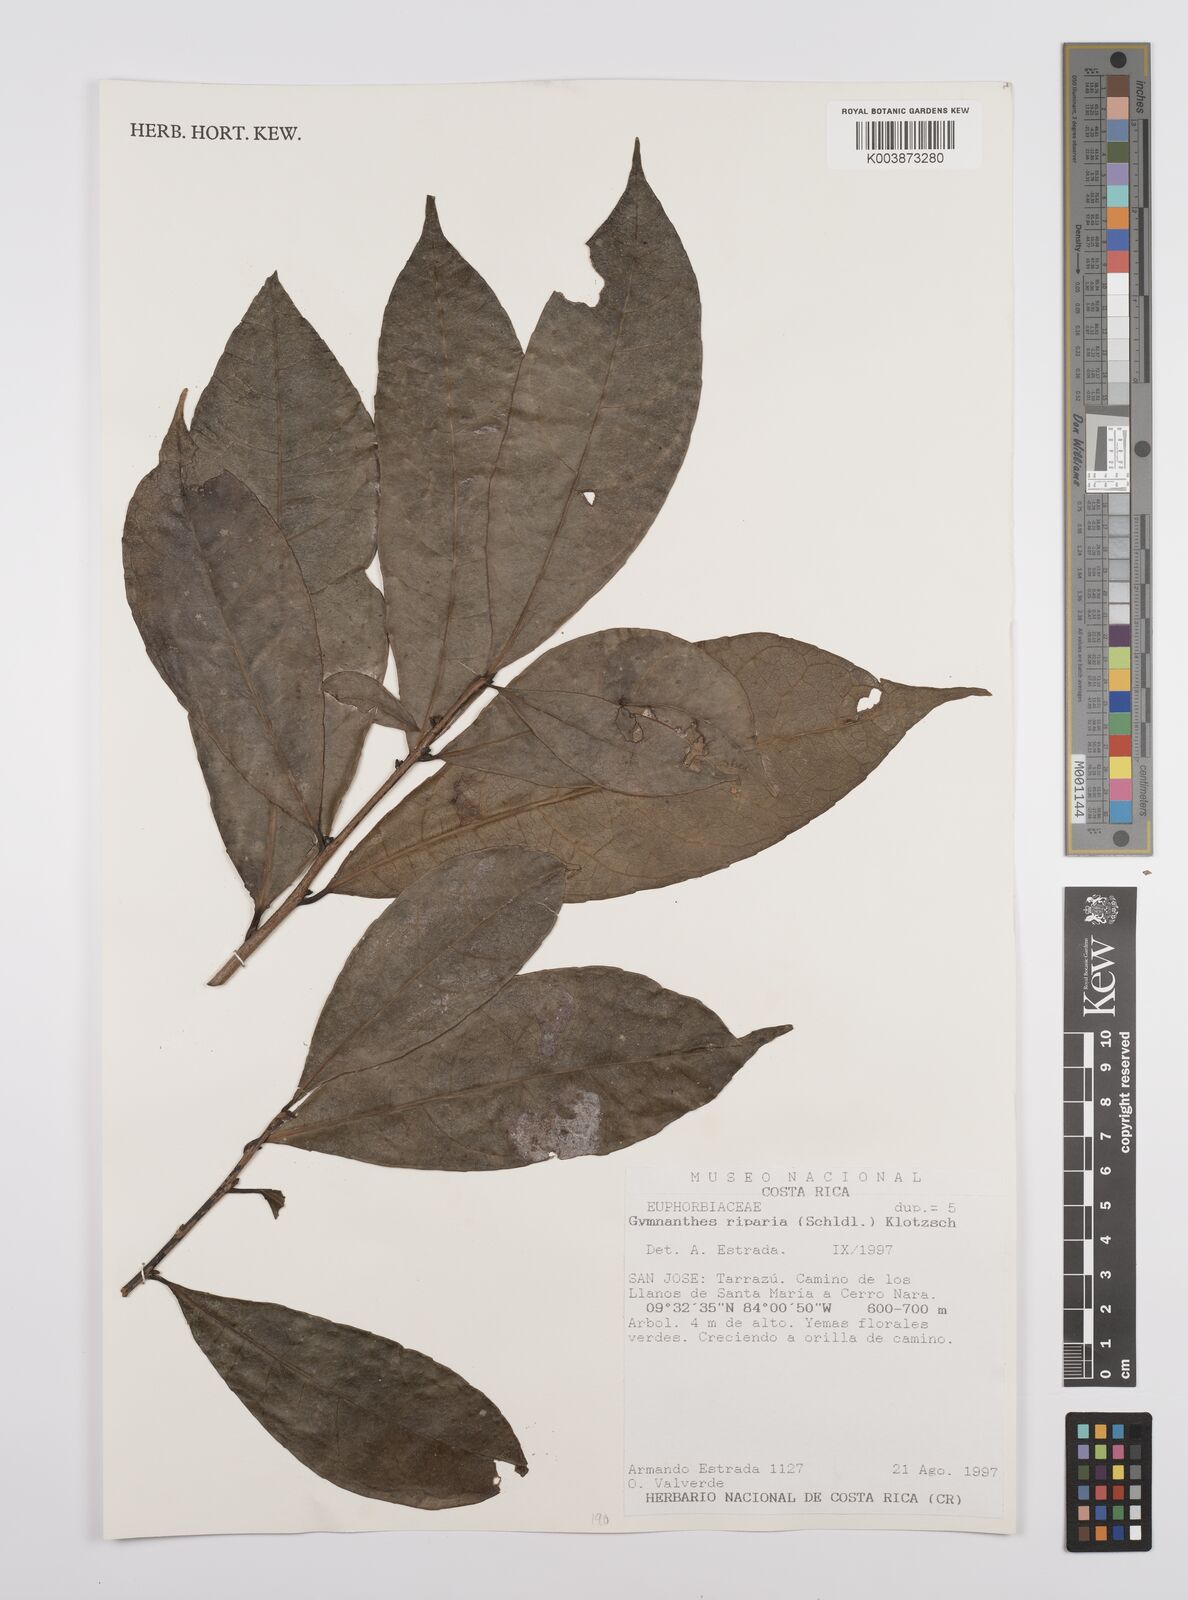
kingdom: Plantae
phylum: Tracheophyta
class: Magnoliopsida
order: Malpighiales
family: Euphorbiaceae
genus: Gymnanthes
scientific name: Gymnanthes riparia
